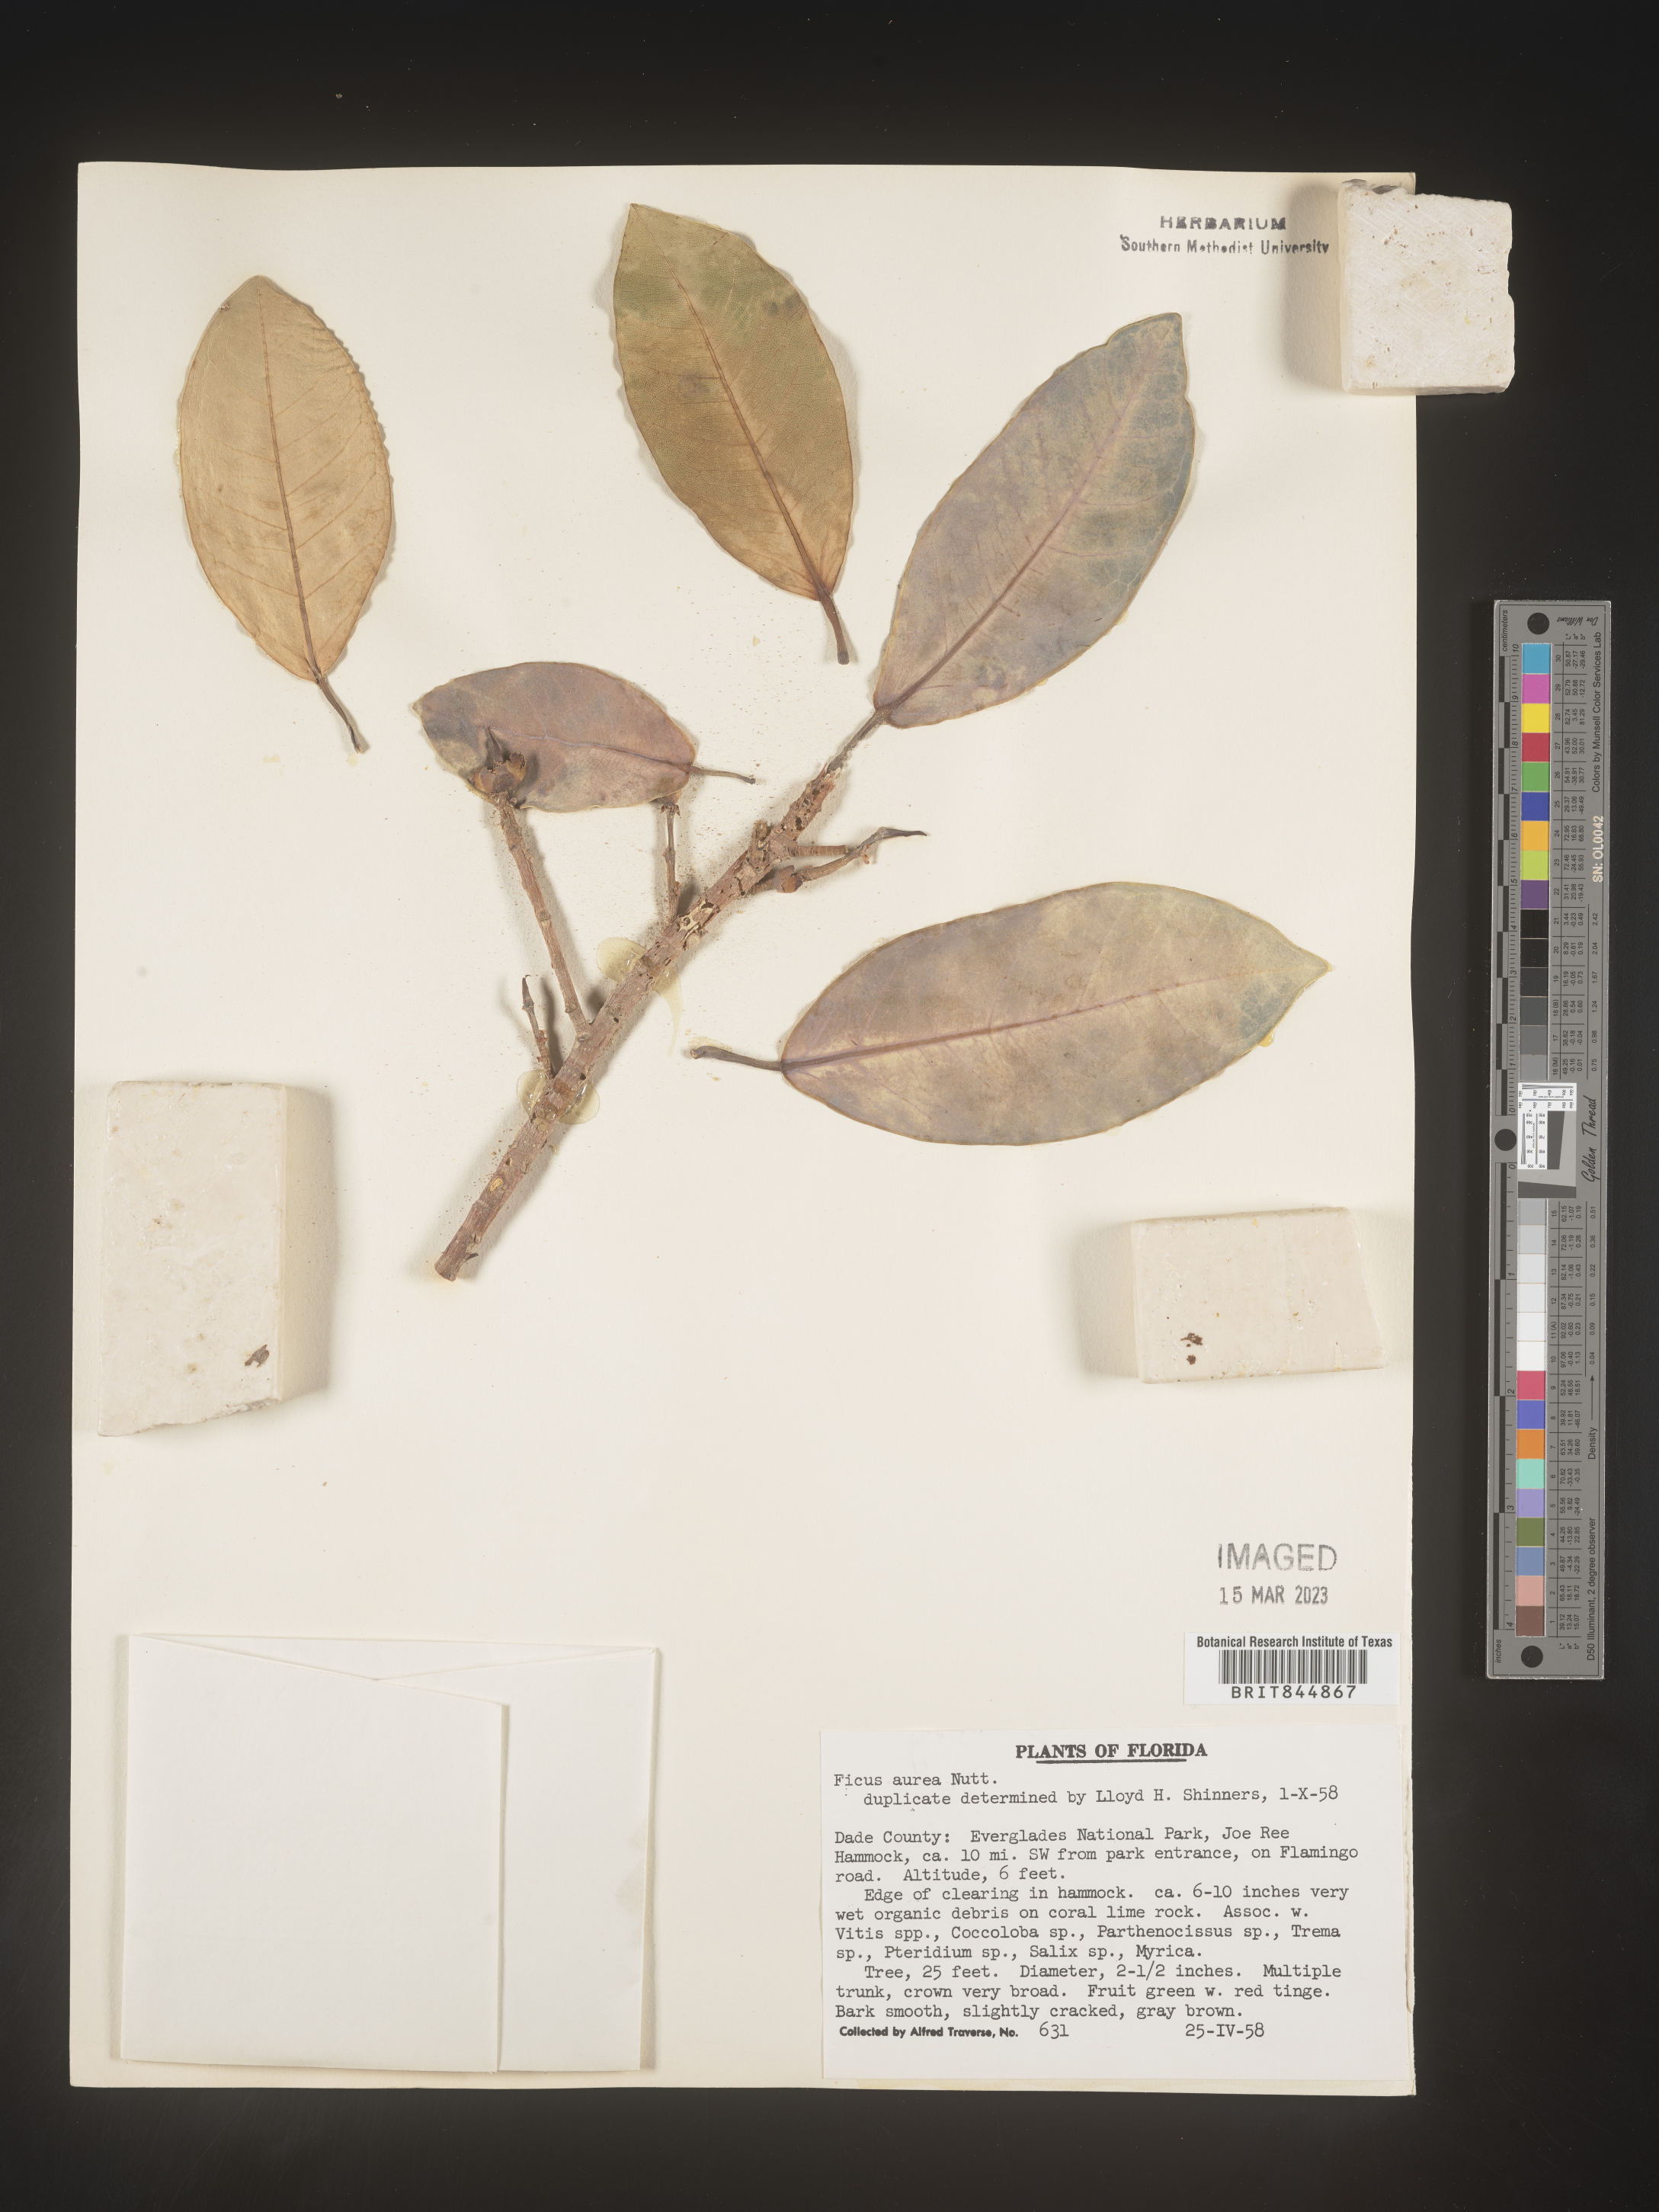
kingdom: Plantae
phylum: Tracheophyta
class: Magnoliopsida
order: Rosales
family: Moraceae
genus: Ficus
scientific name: Ficus
